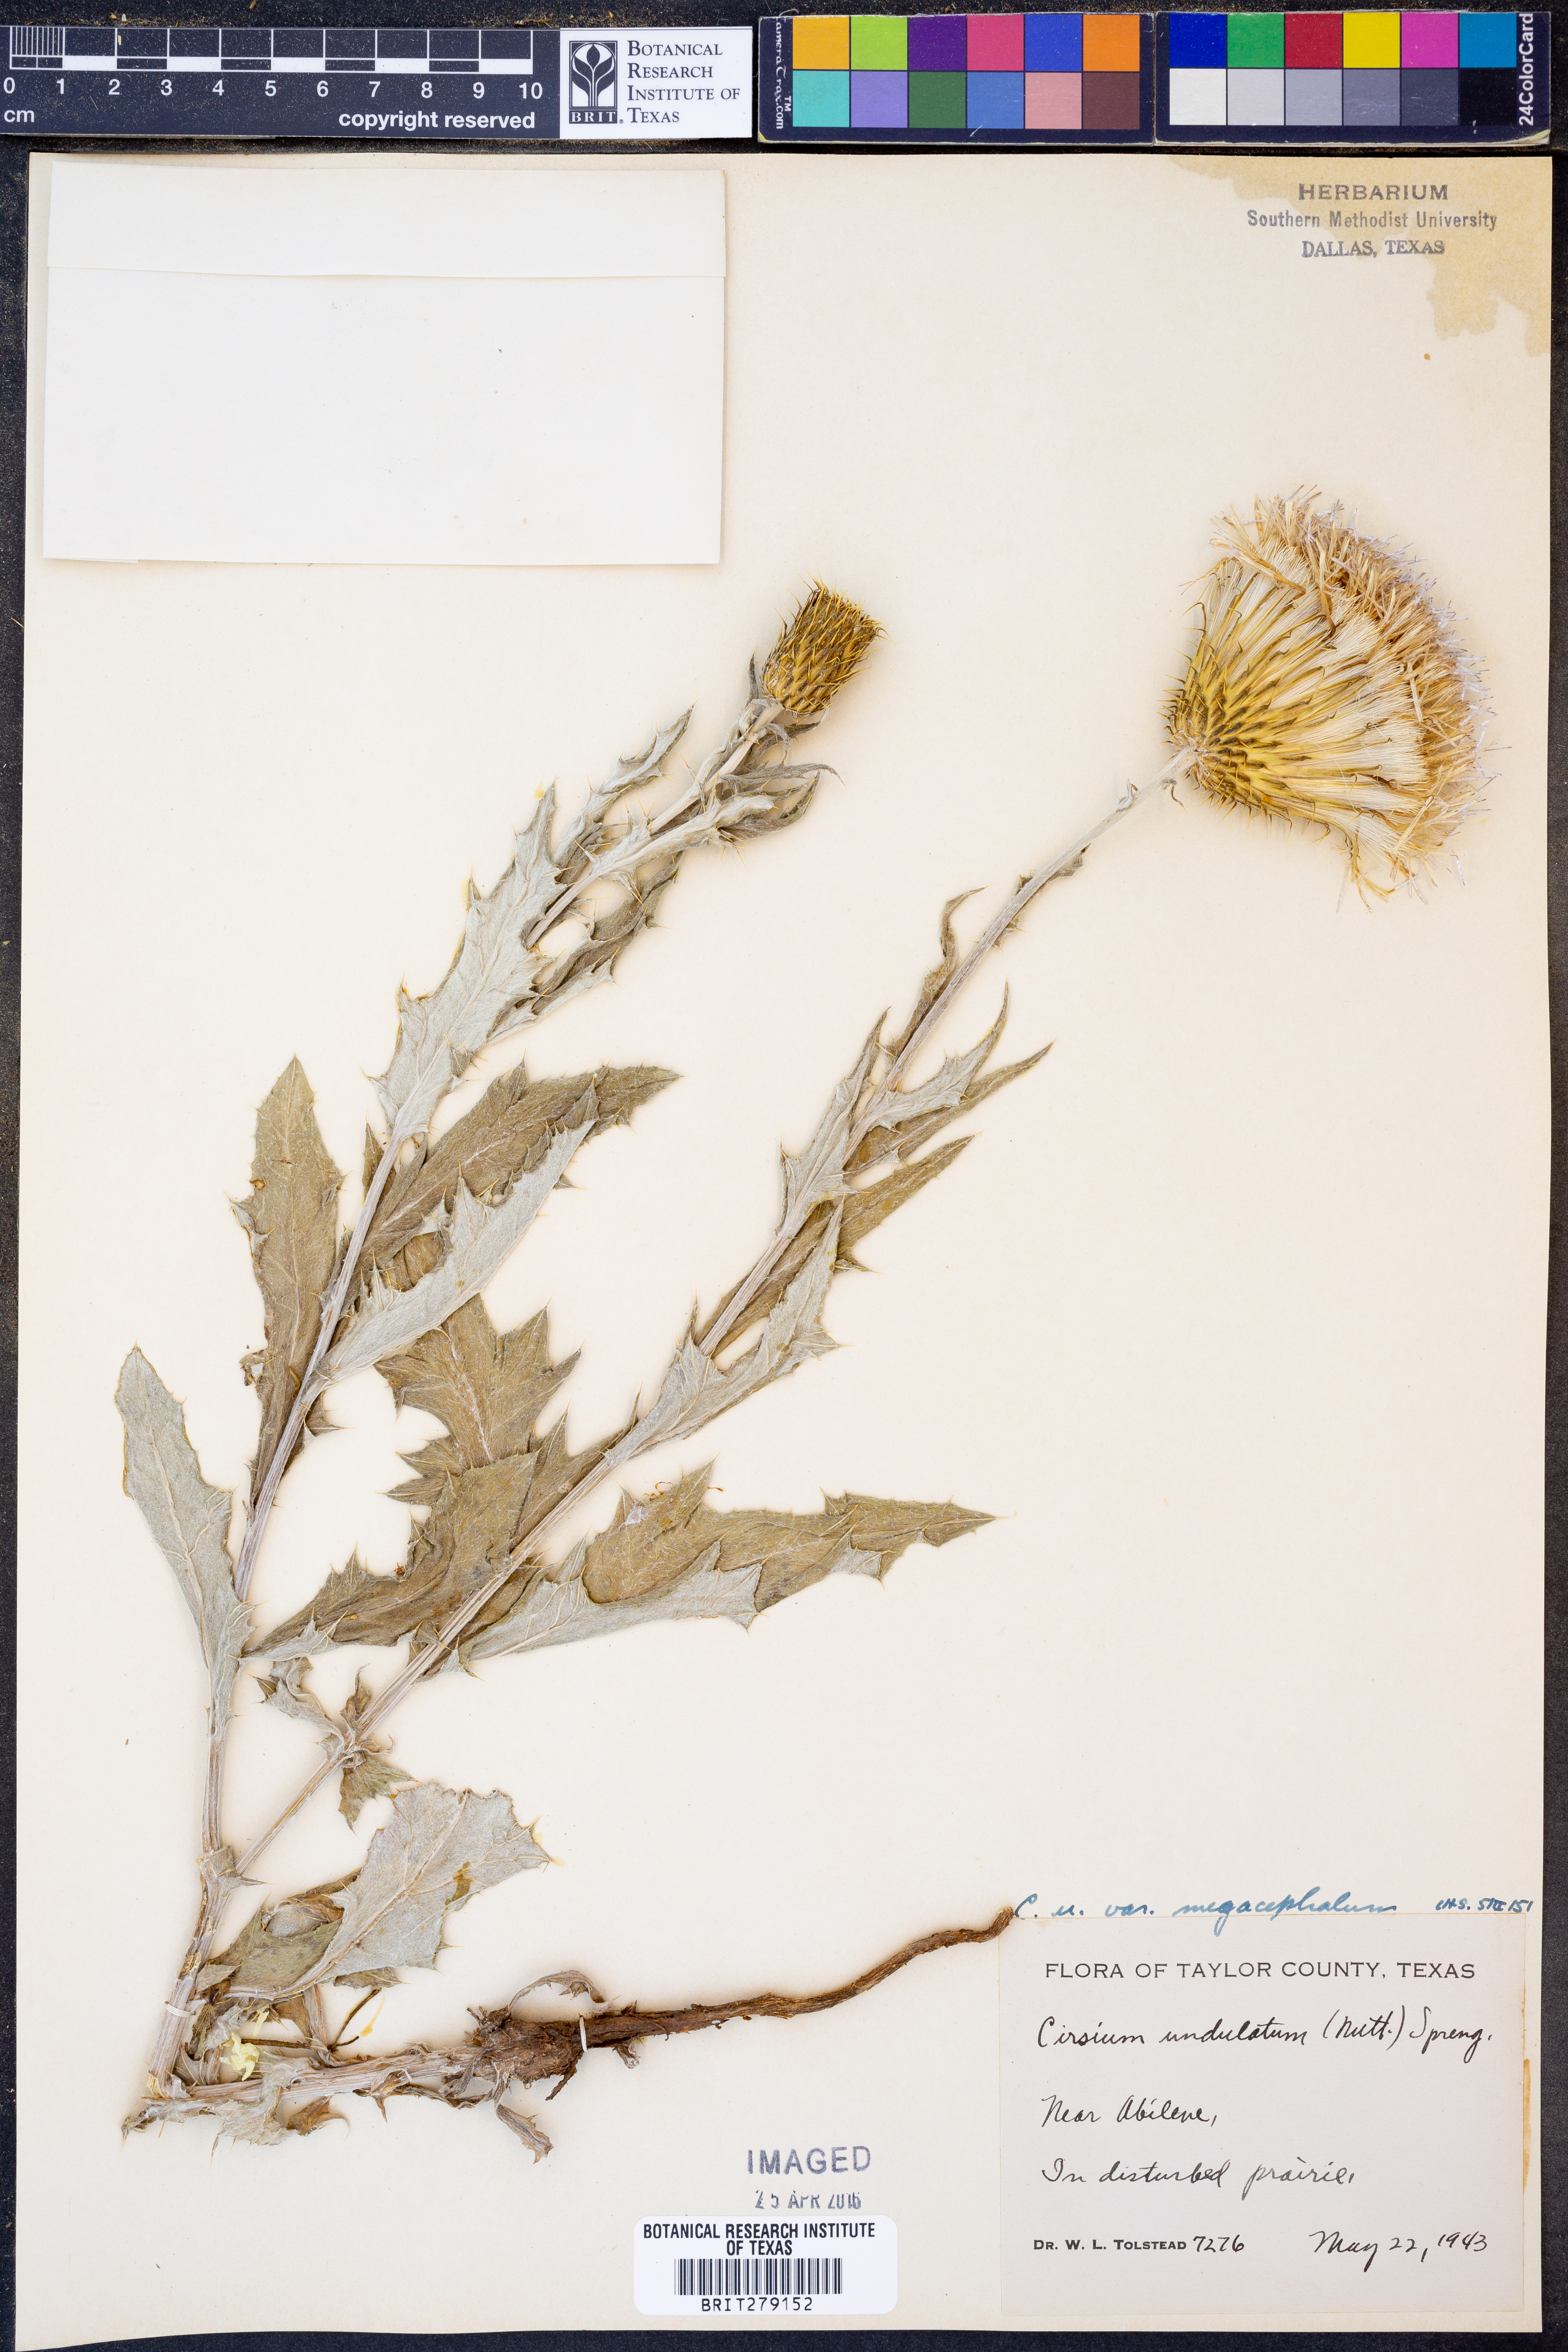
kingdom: Plantae
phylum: Tracheophyta
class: Magnoliopsida
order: Asterales
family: Asteraceae
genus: Cirsium
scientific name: Cirsium undulatum
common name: Pasture thistle
